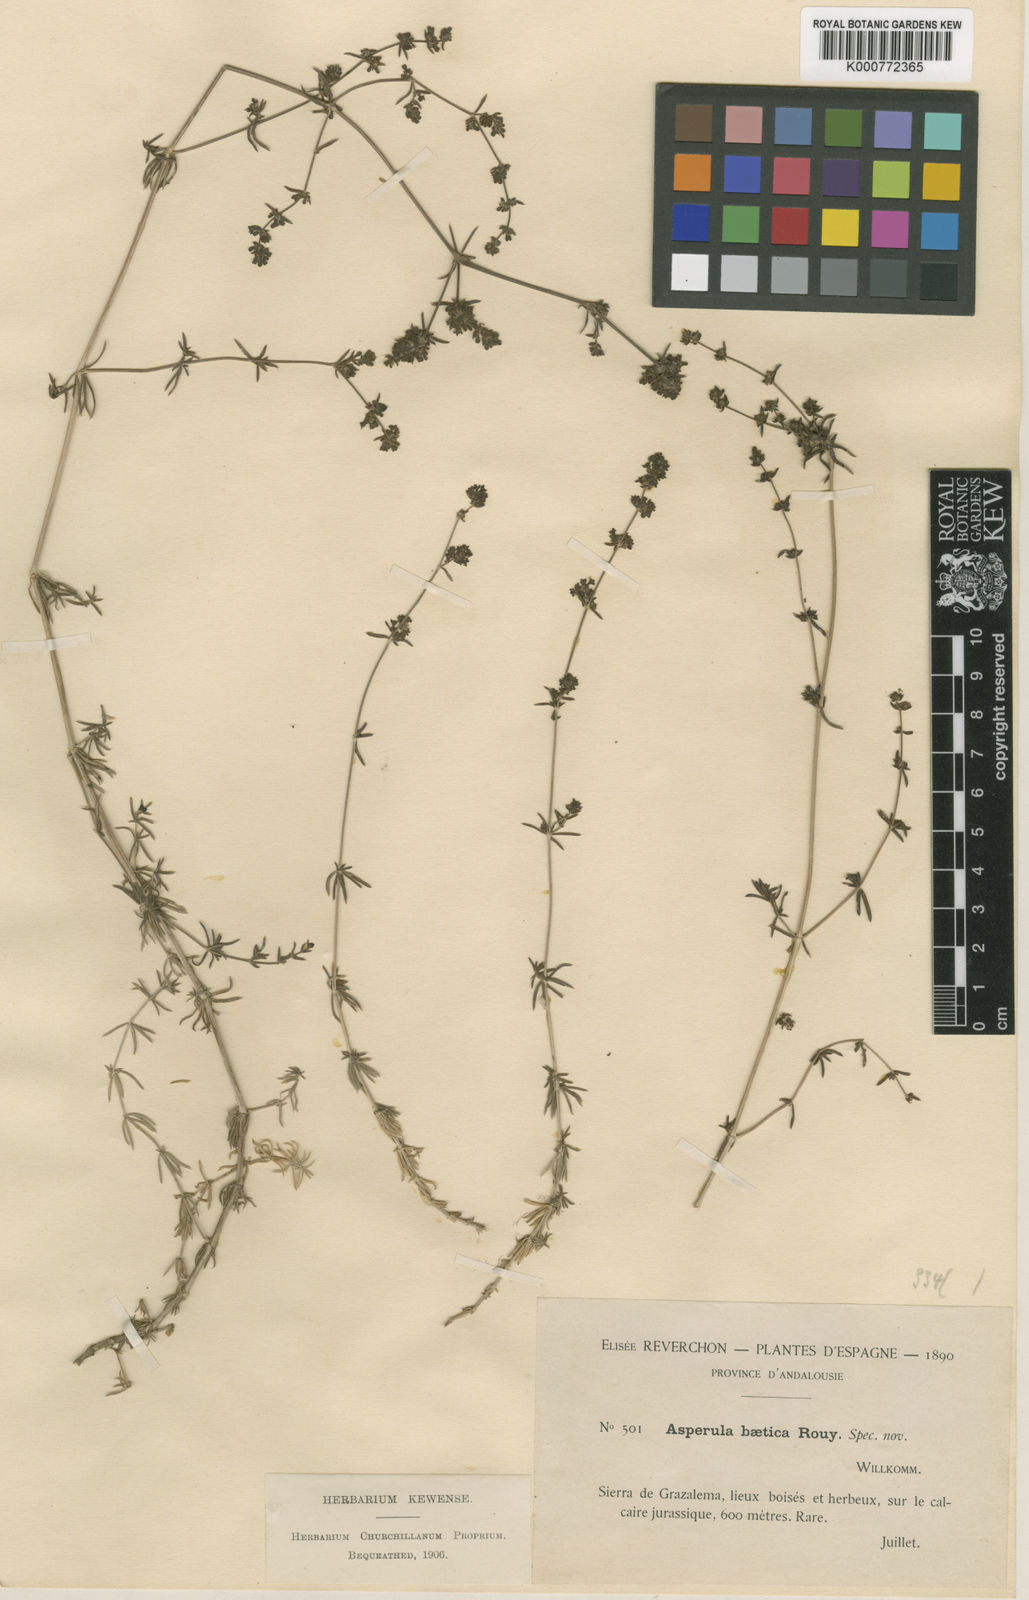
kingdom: Plantae
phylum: Tracheophyta
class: Magnoliopsida
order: Gentianales
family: Rubiaceae
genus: Galium
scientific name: Galium baeticum
